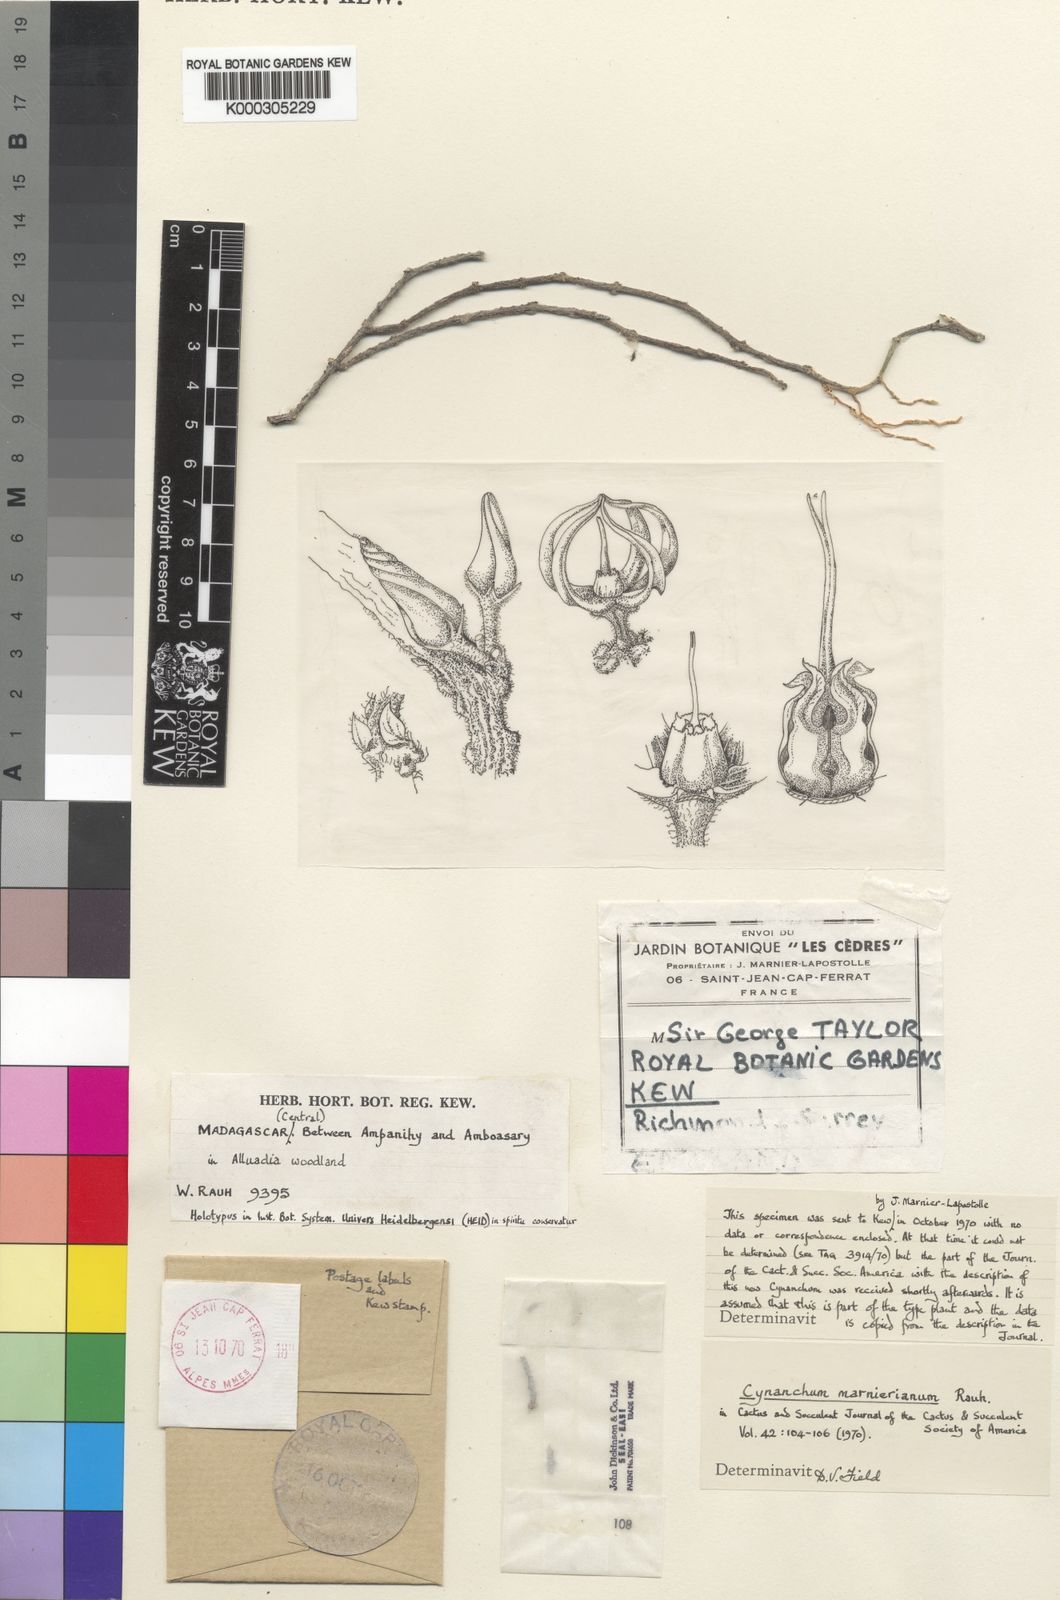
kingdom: Plantae
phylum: Tracheophyta
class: Magnoliopsida
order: Gentianales
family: Apocynaceae
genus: Cynanchum
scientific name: Cynanchum marnierianum
